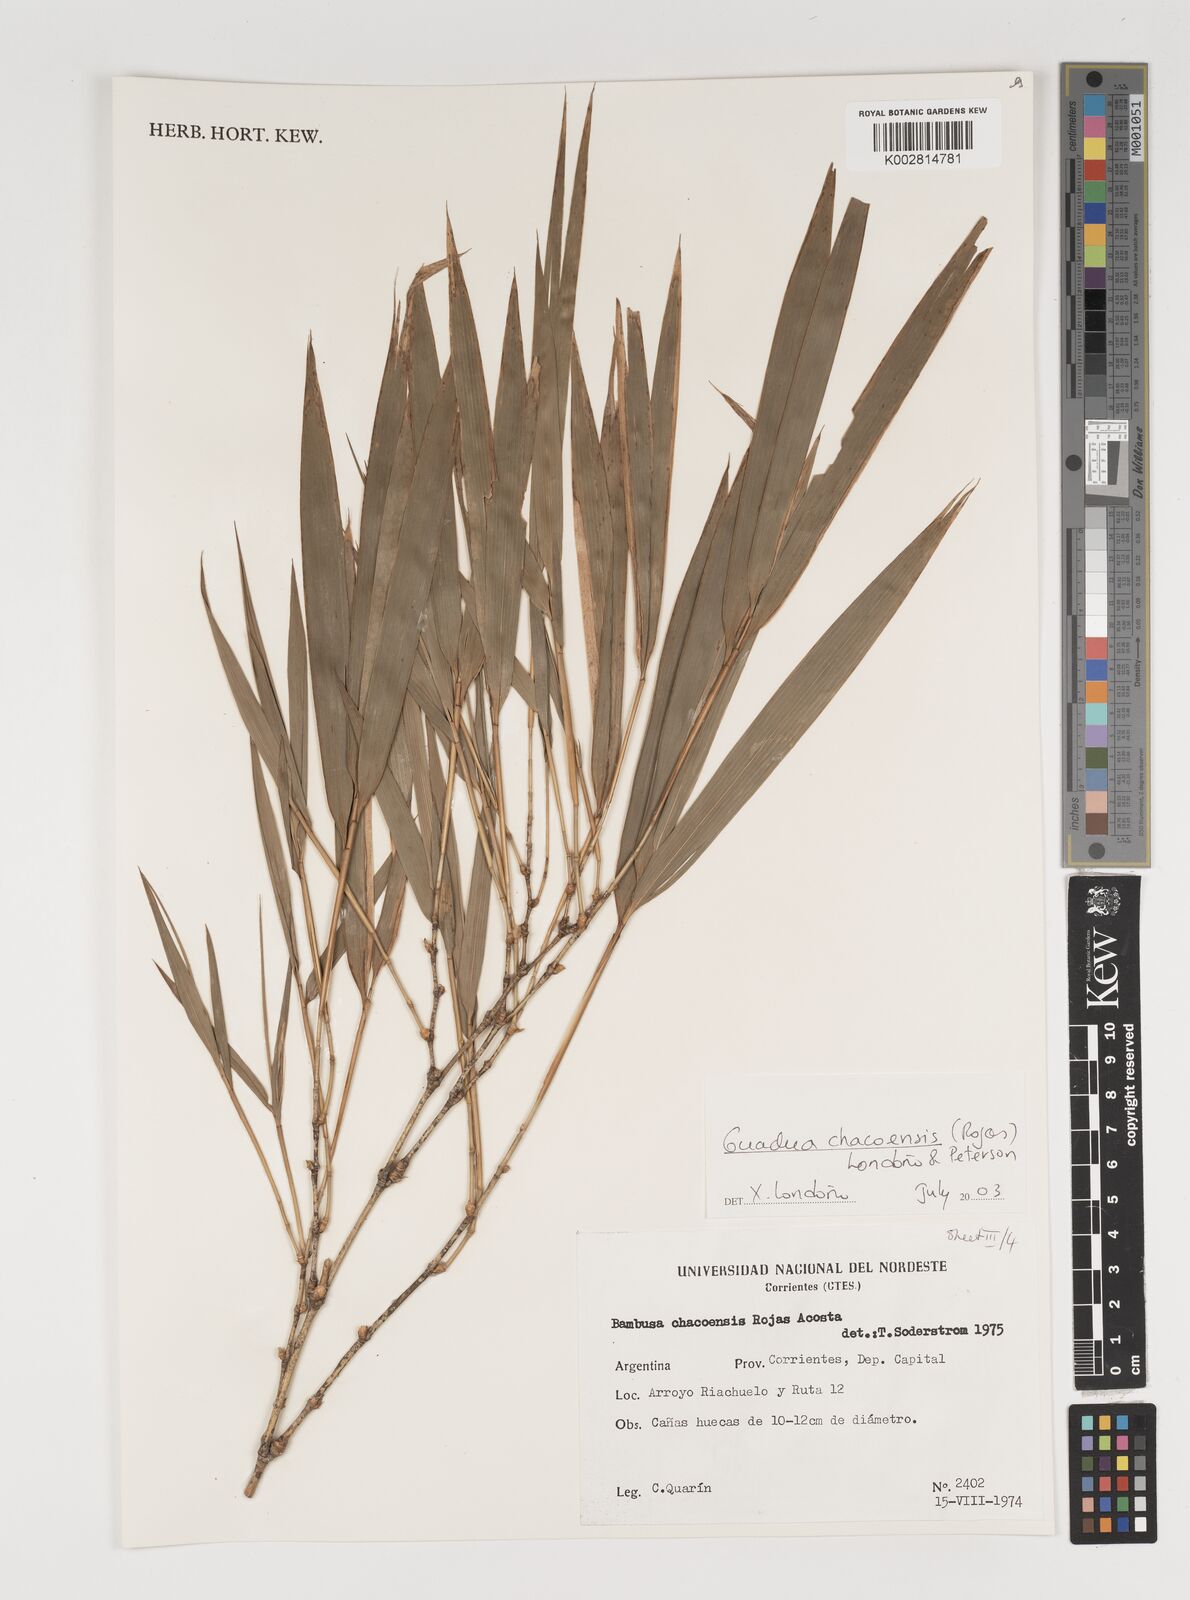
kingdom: Plantae
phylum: Tracheophyta
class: Liliopsida
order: Poales
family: Poaceae
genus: Guadua
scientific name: Guadua chacoensis
